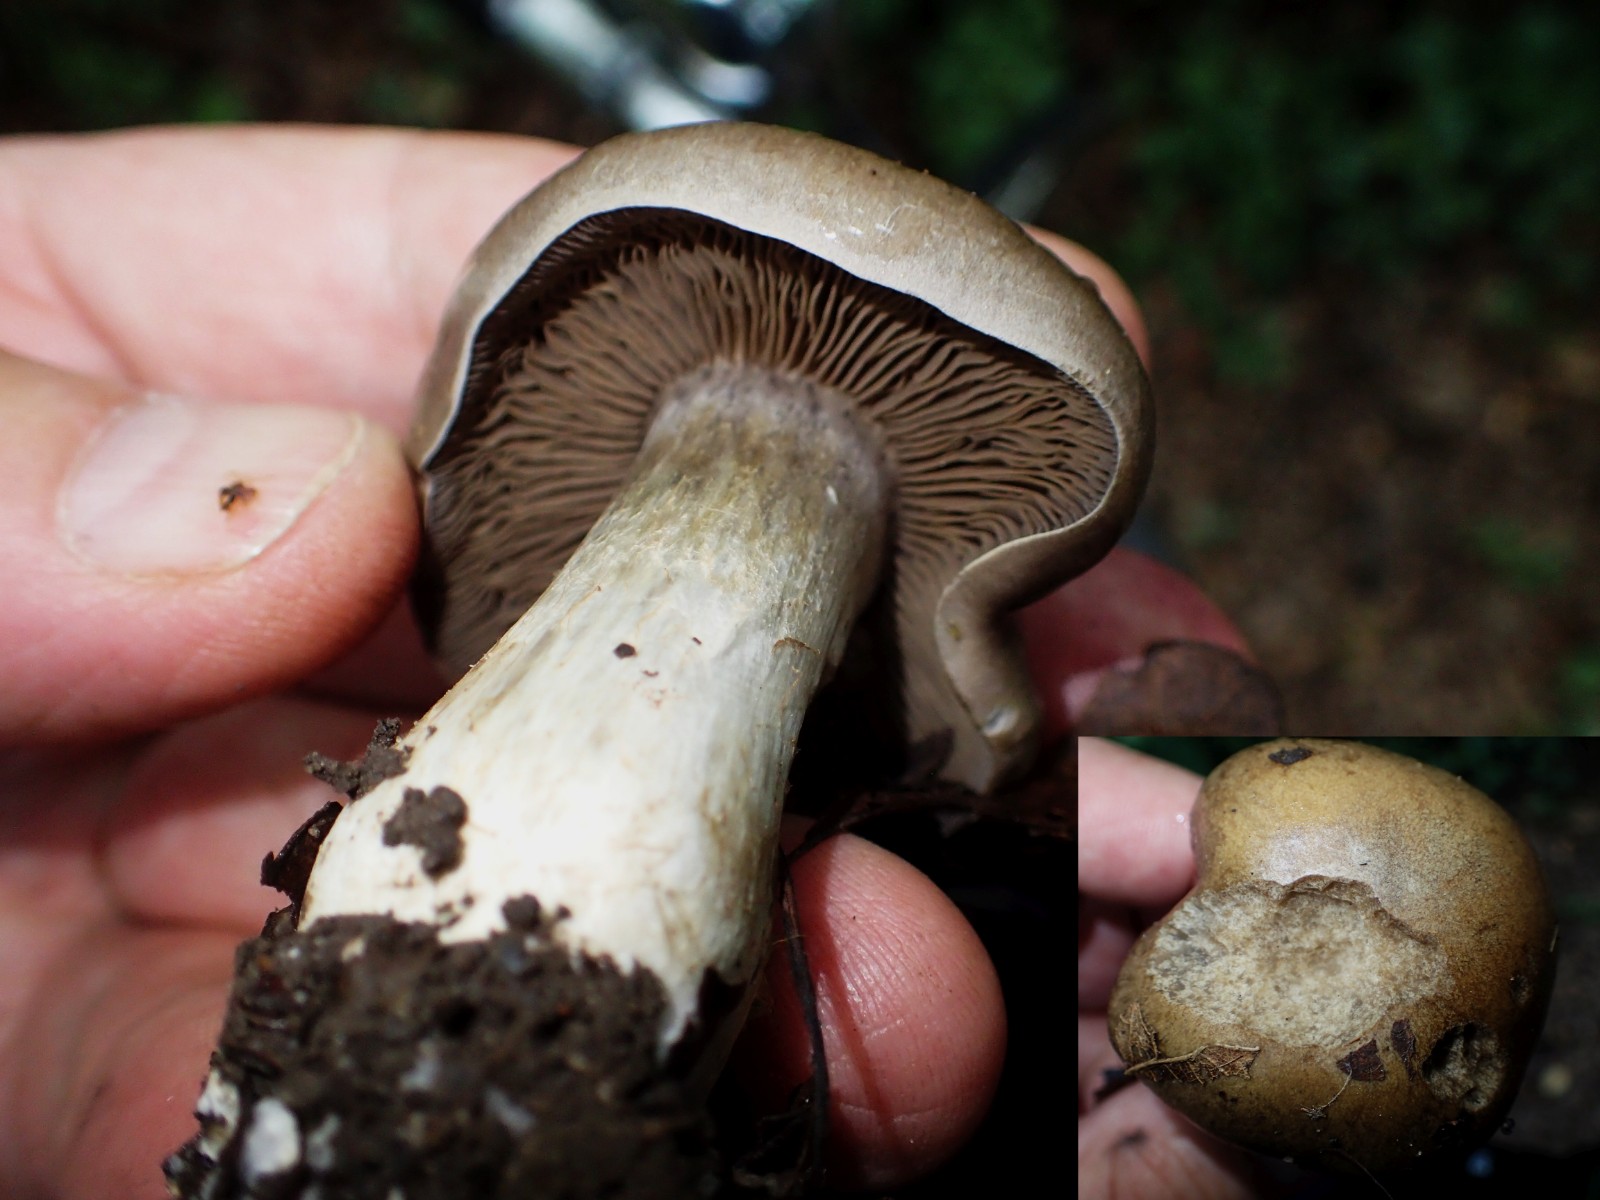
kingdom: Fungi
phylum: Basidiomycota
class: Agaricomycetes
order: Agaricales
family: Cortinariaceae
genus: Cortinarius
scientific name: Cortinarius
